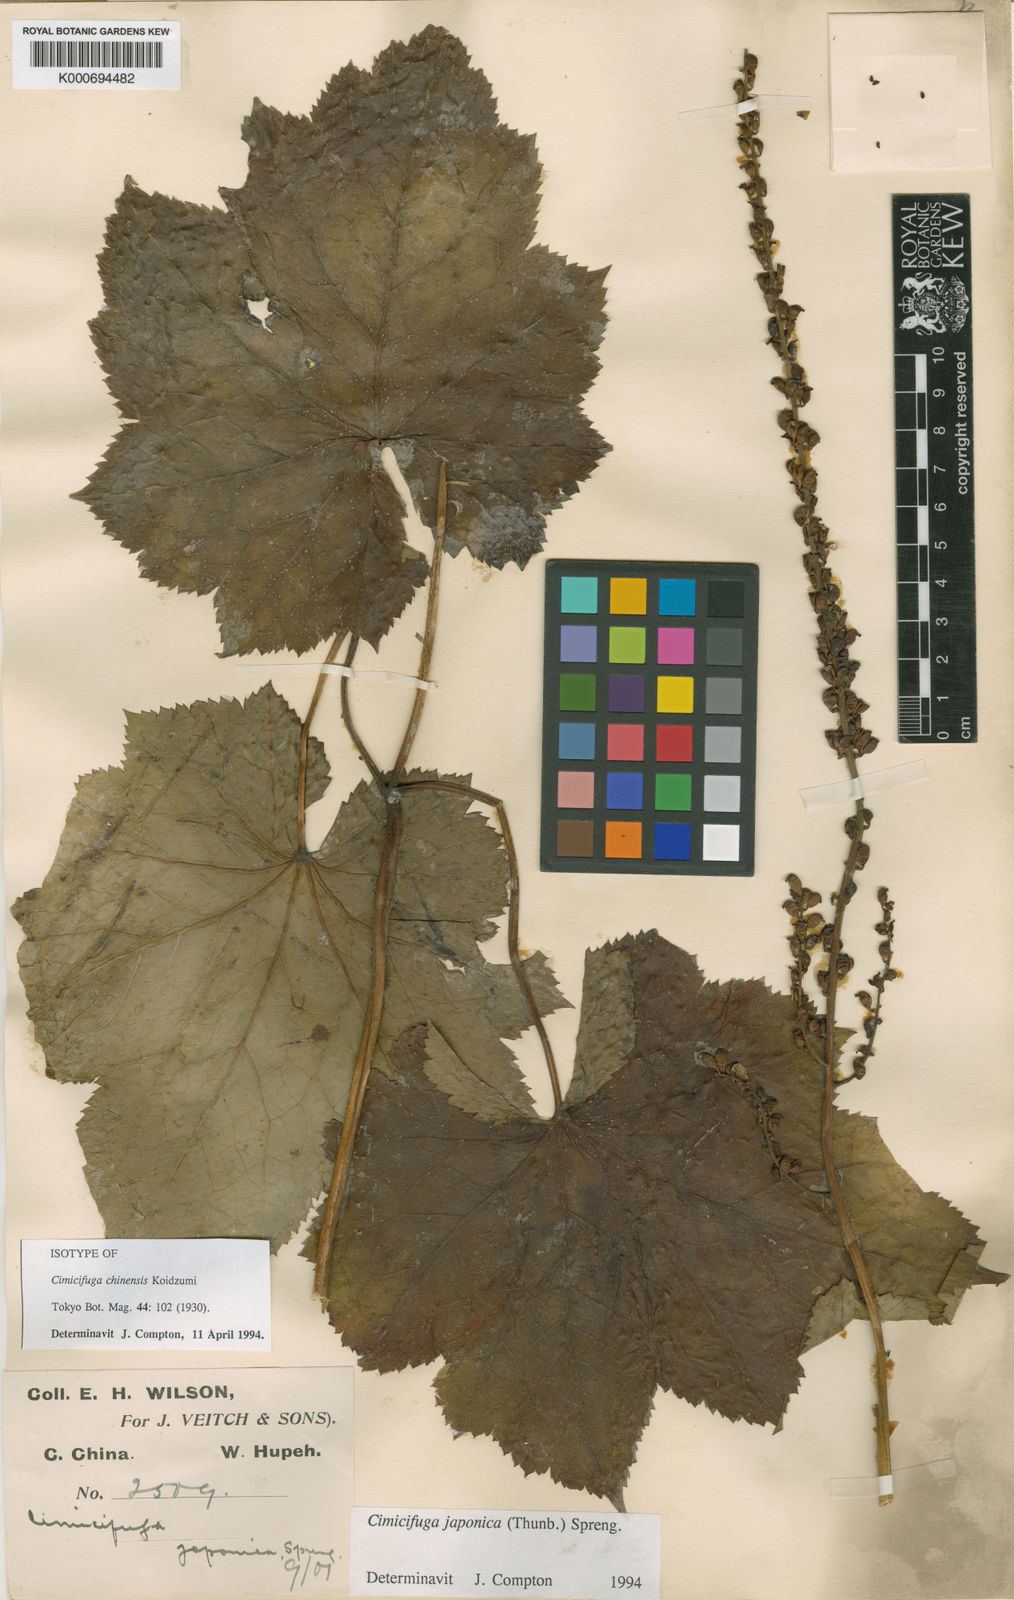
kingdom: Plantae
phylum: Tracheophyta
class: Magnoliopsida
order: Ranunculales
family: Ranunculaceae
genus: Actaea
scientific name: Actaea japonica
